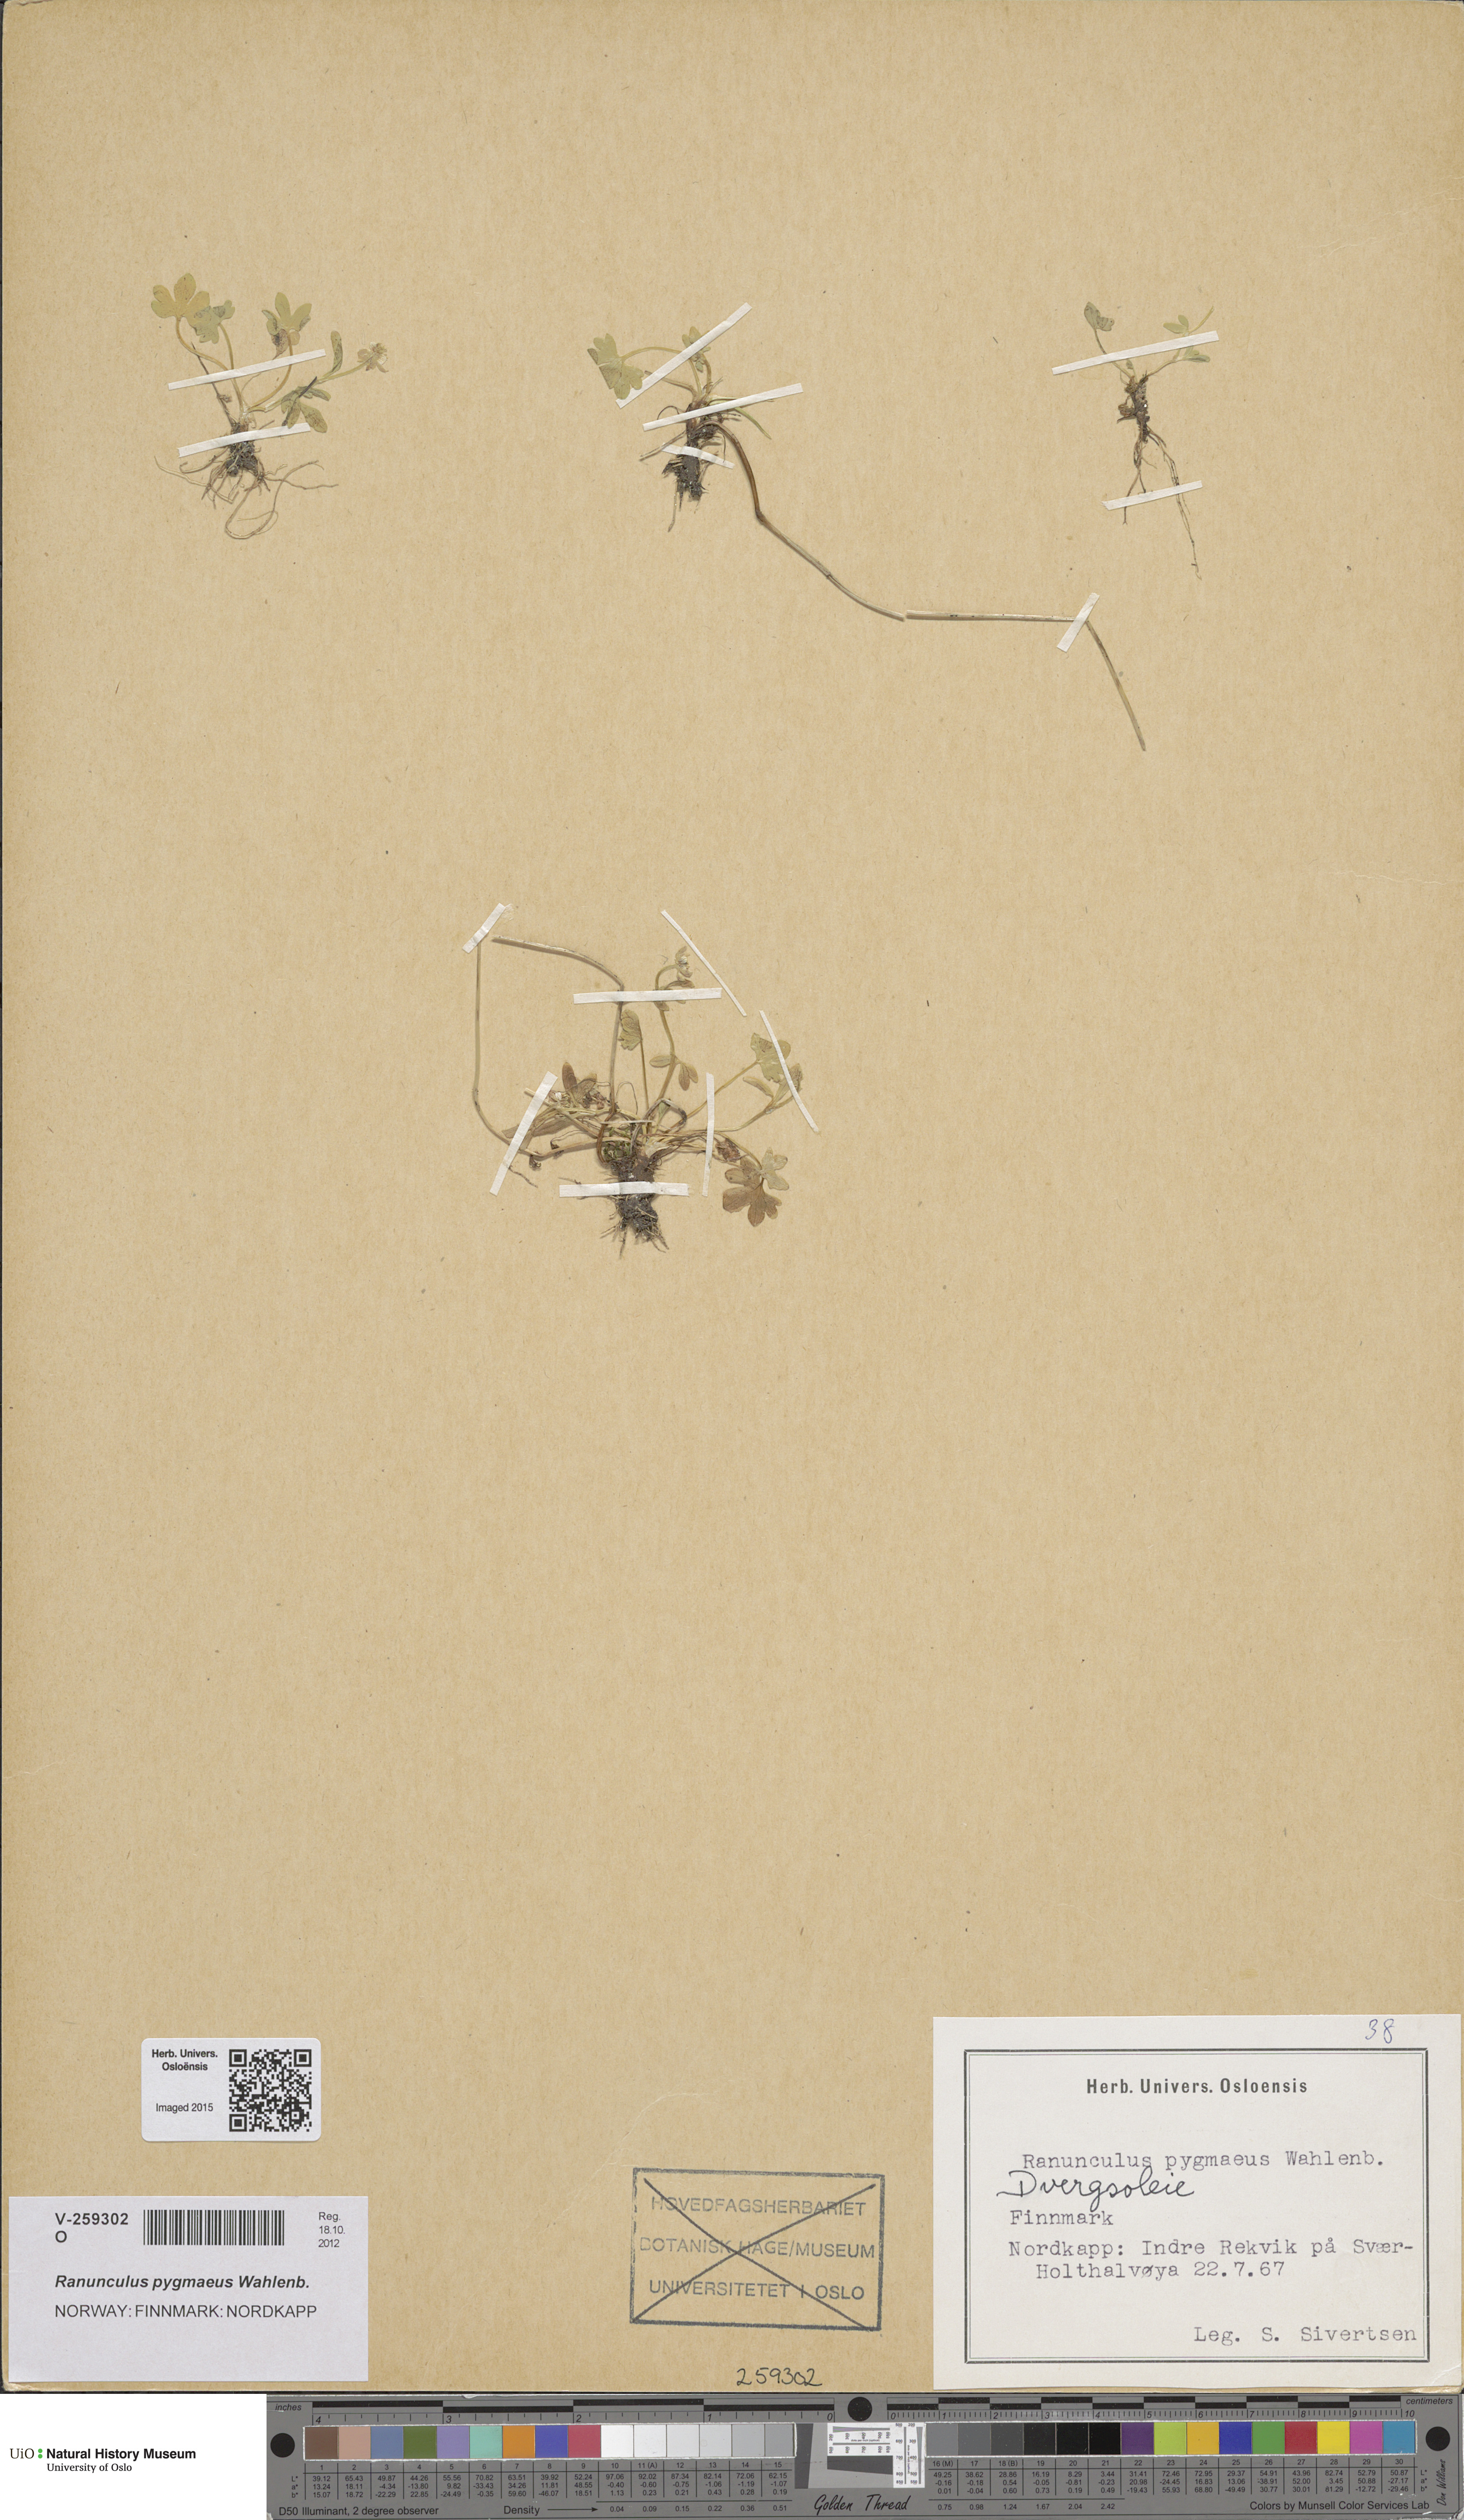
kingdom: Plantae
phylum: Tracheophyta
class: Magnoliopsida
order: Ranunculales
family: Ranunculaceae
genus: Ranunculus
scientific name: Ranunculus pygmaeus
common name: Dwarf buttercup
